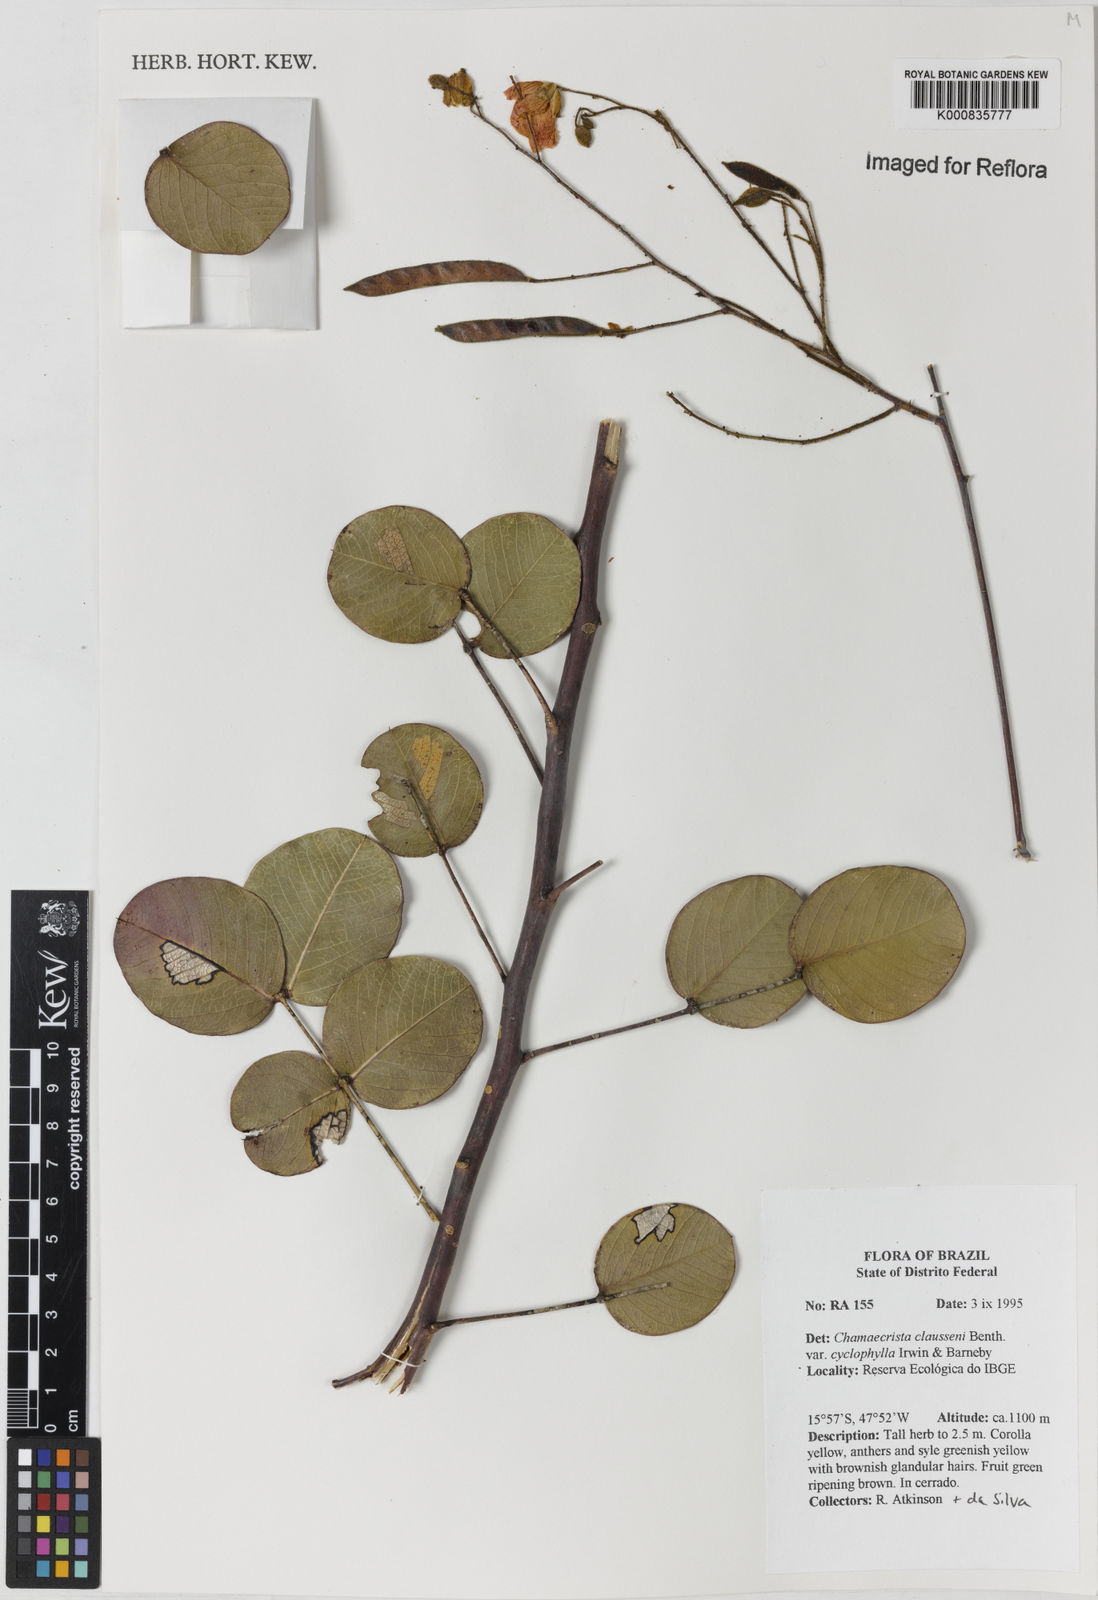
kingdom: Plantae
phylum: Tracheophyta
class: Magnoliopsida
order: Fabales
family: Fabaceae
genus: Chamaecrista
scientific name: Chamaecrista cyclophylla
